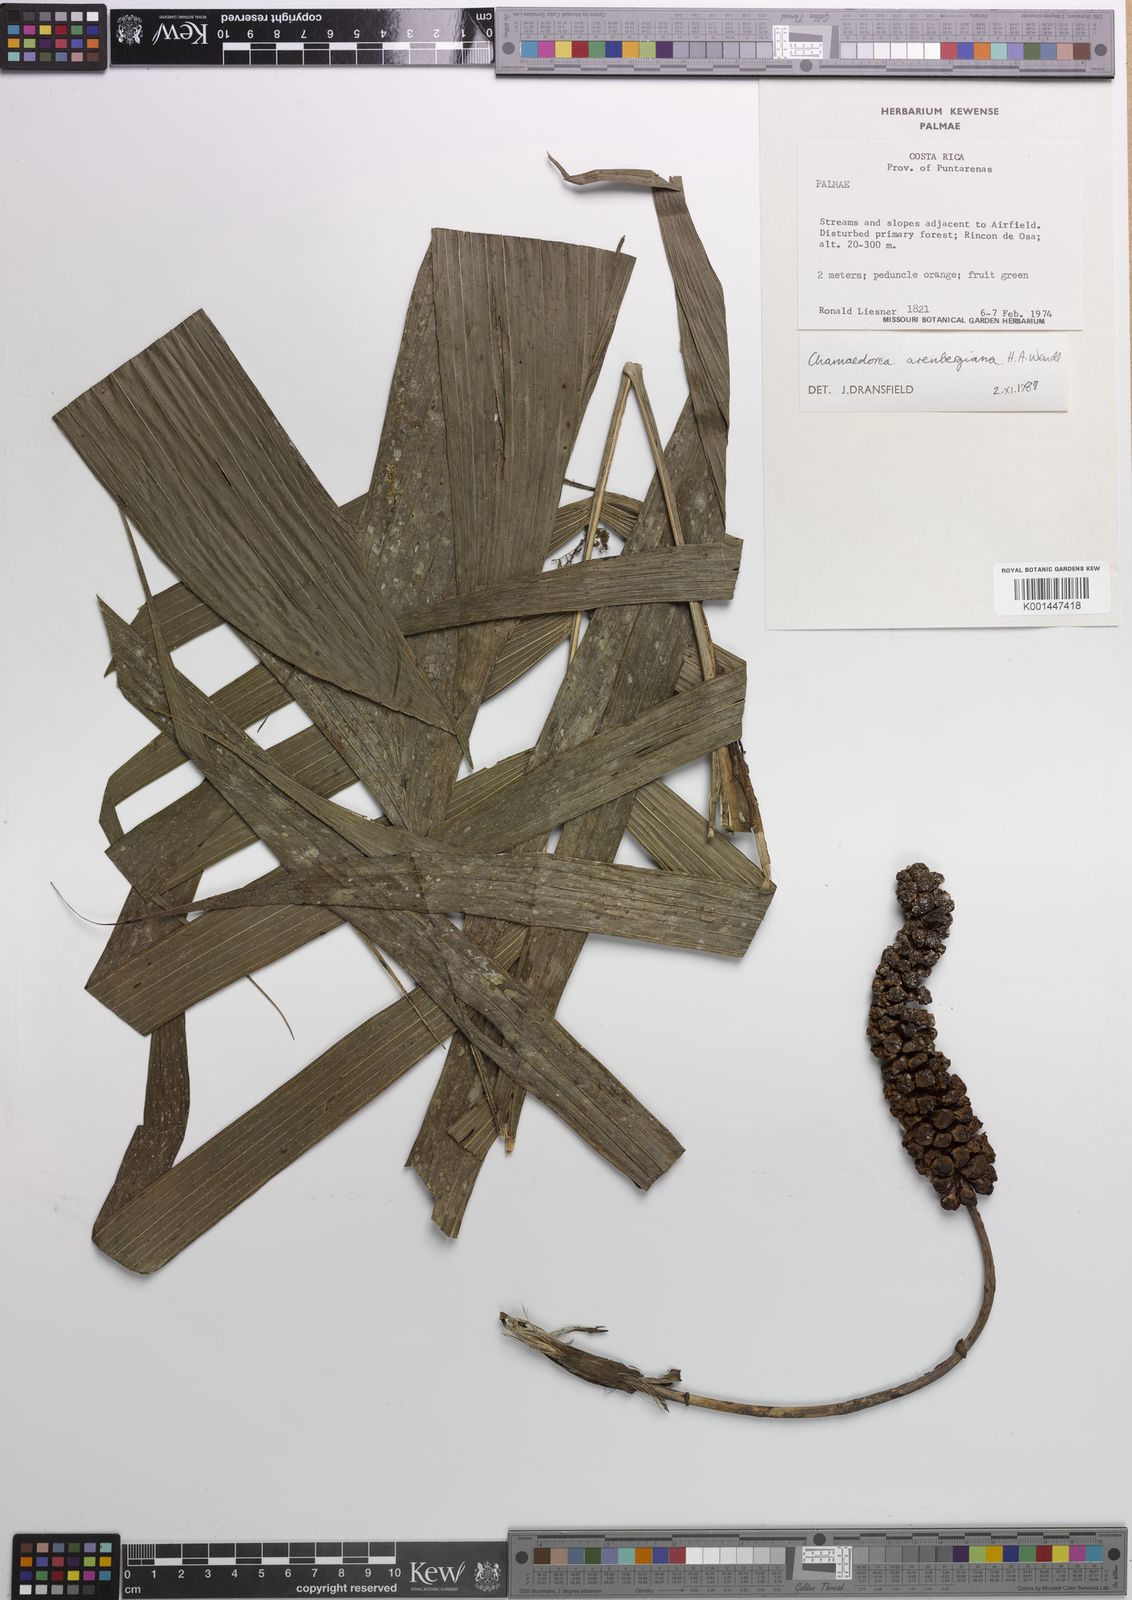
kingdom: Plantae
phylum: Tracheophyta
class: Liliopsida
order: Arecales
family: Arecaceae
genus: Chamaedorea
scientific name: Chamaedorea arenbergiana
